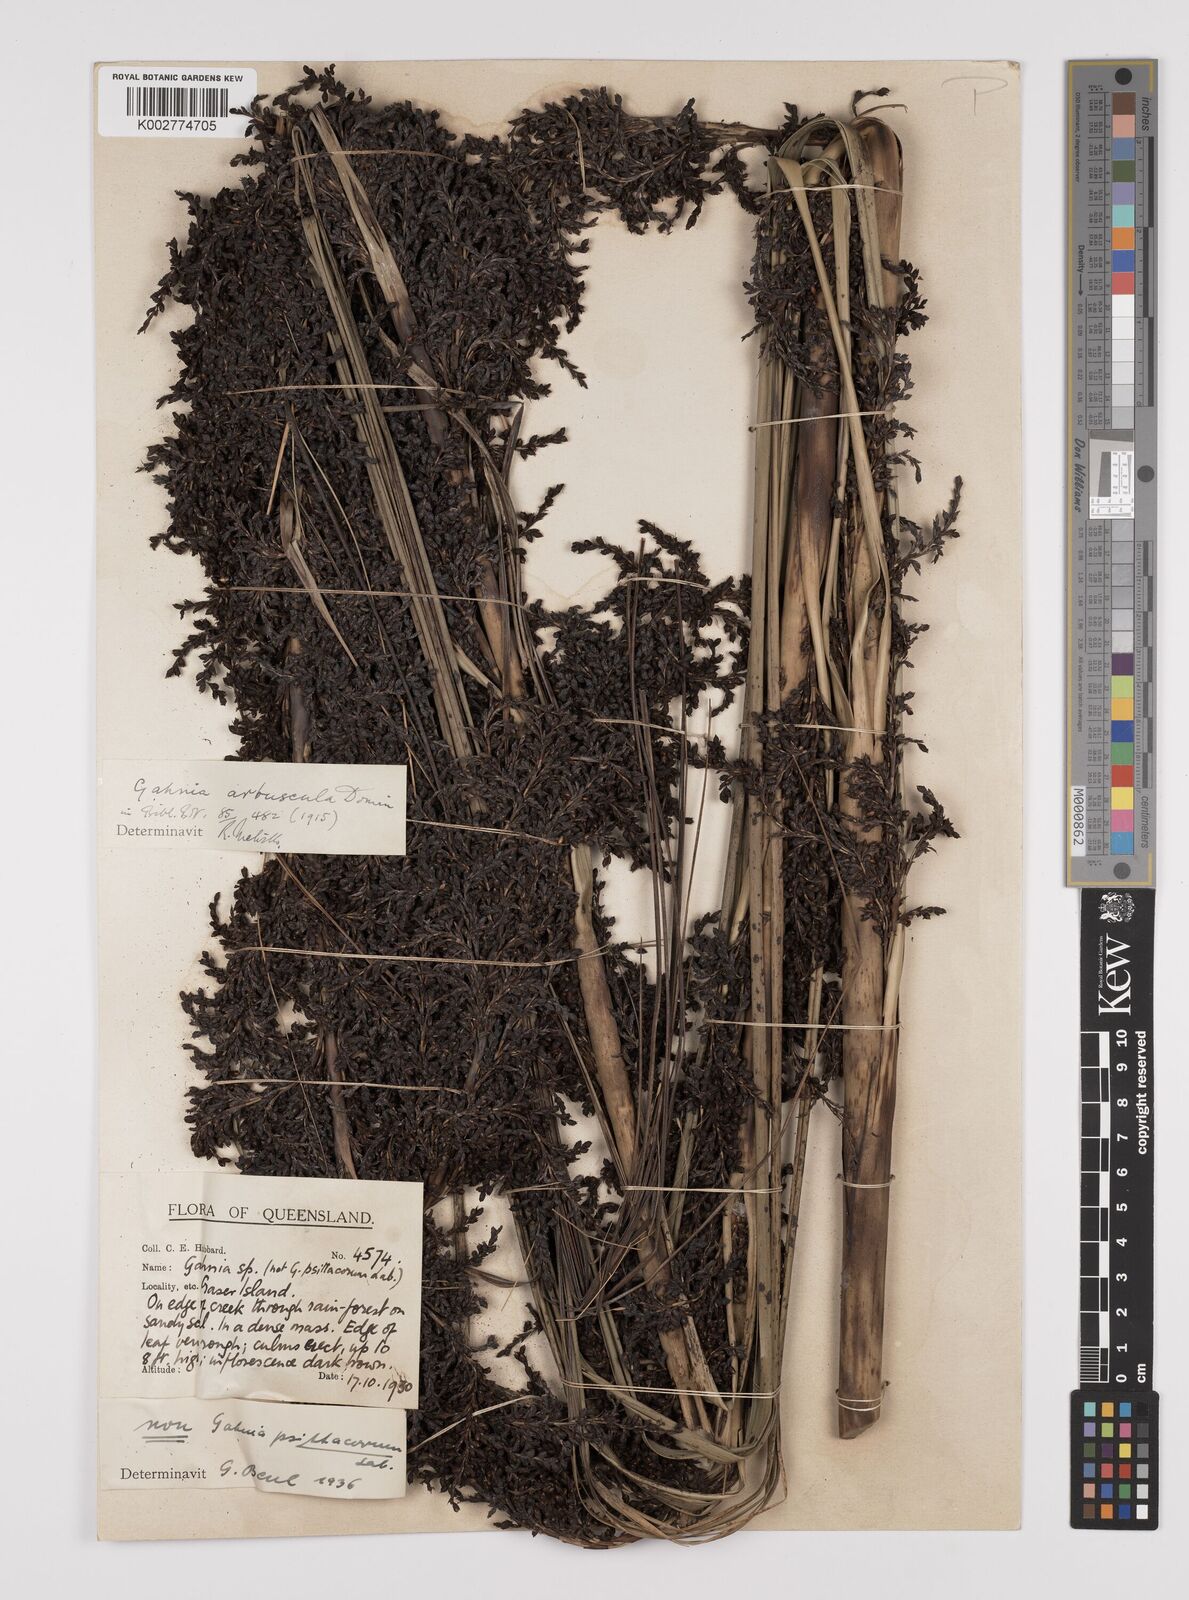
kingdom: Plantae
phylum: Tracheophyta
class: Liliopsida
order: Poales
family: Cyperaceae
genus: Gahnia
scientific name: Gahnia sieberiana
